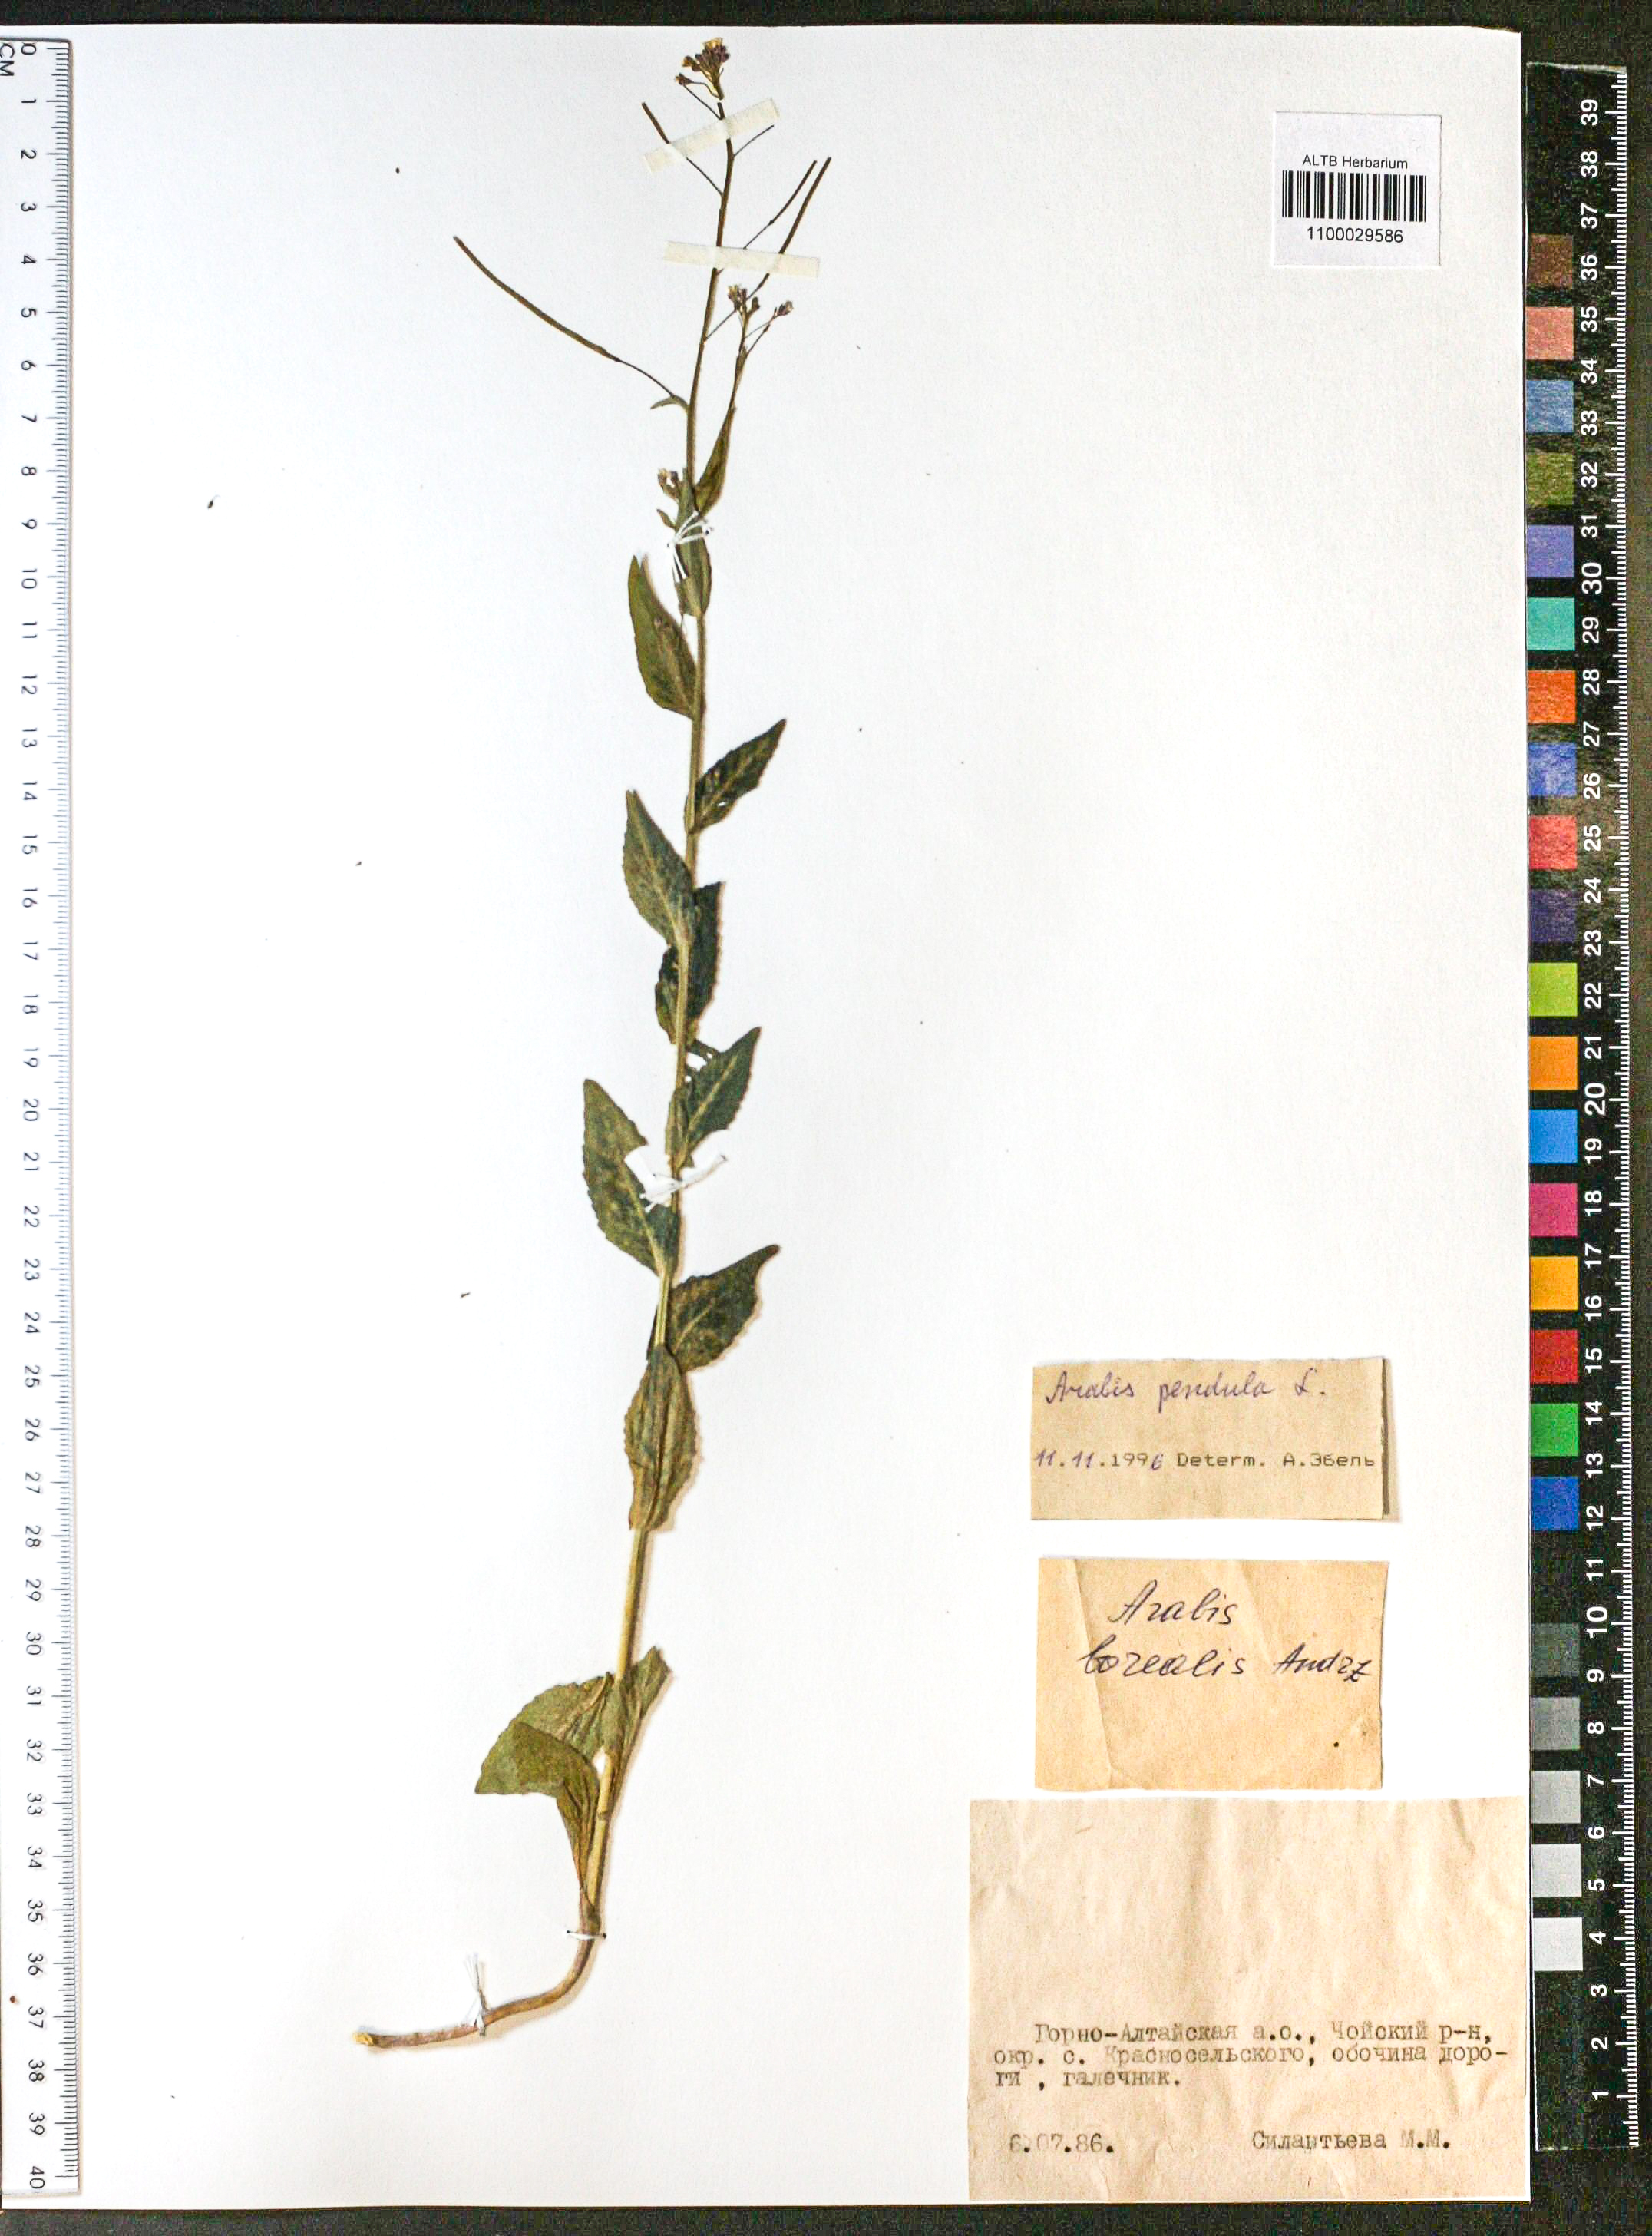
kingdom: Plantae
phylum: Tracheophyta
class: Magnoliopsida
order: Brassicales
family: Brassicaceae
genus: Catolobus
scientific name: Catolobus pendulus
